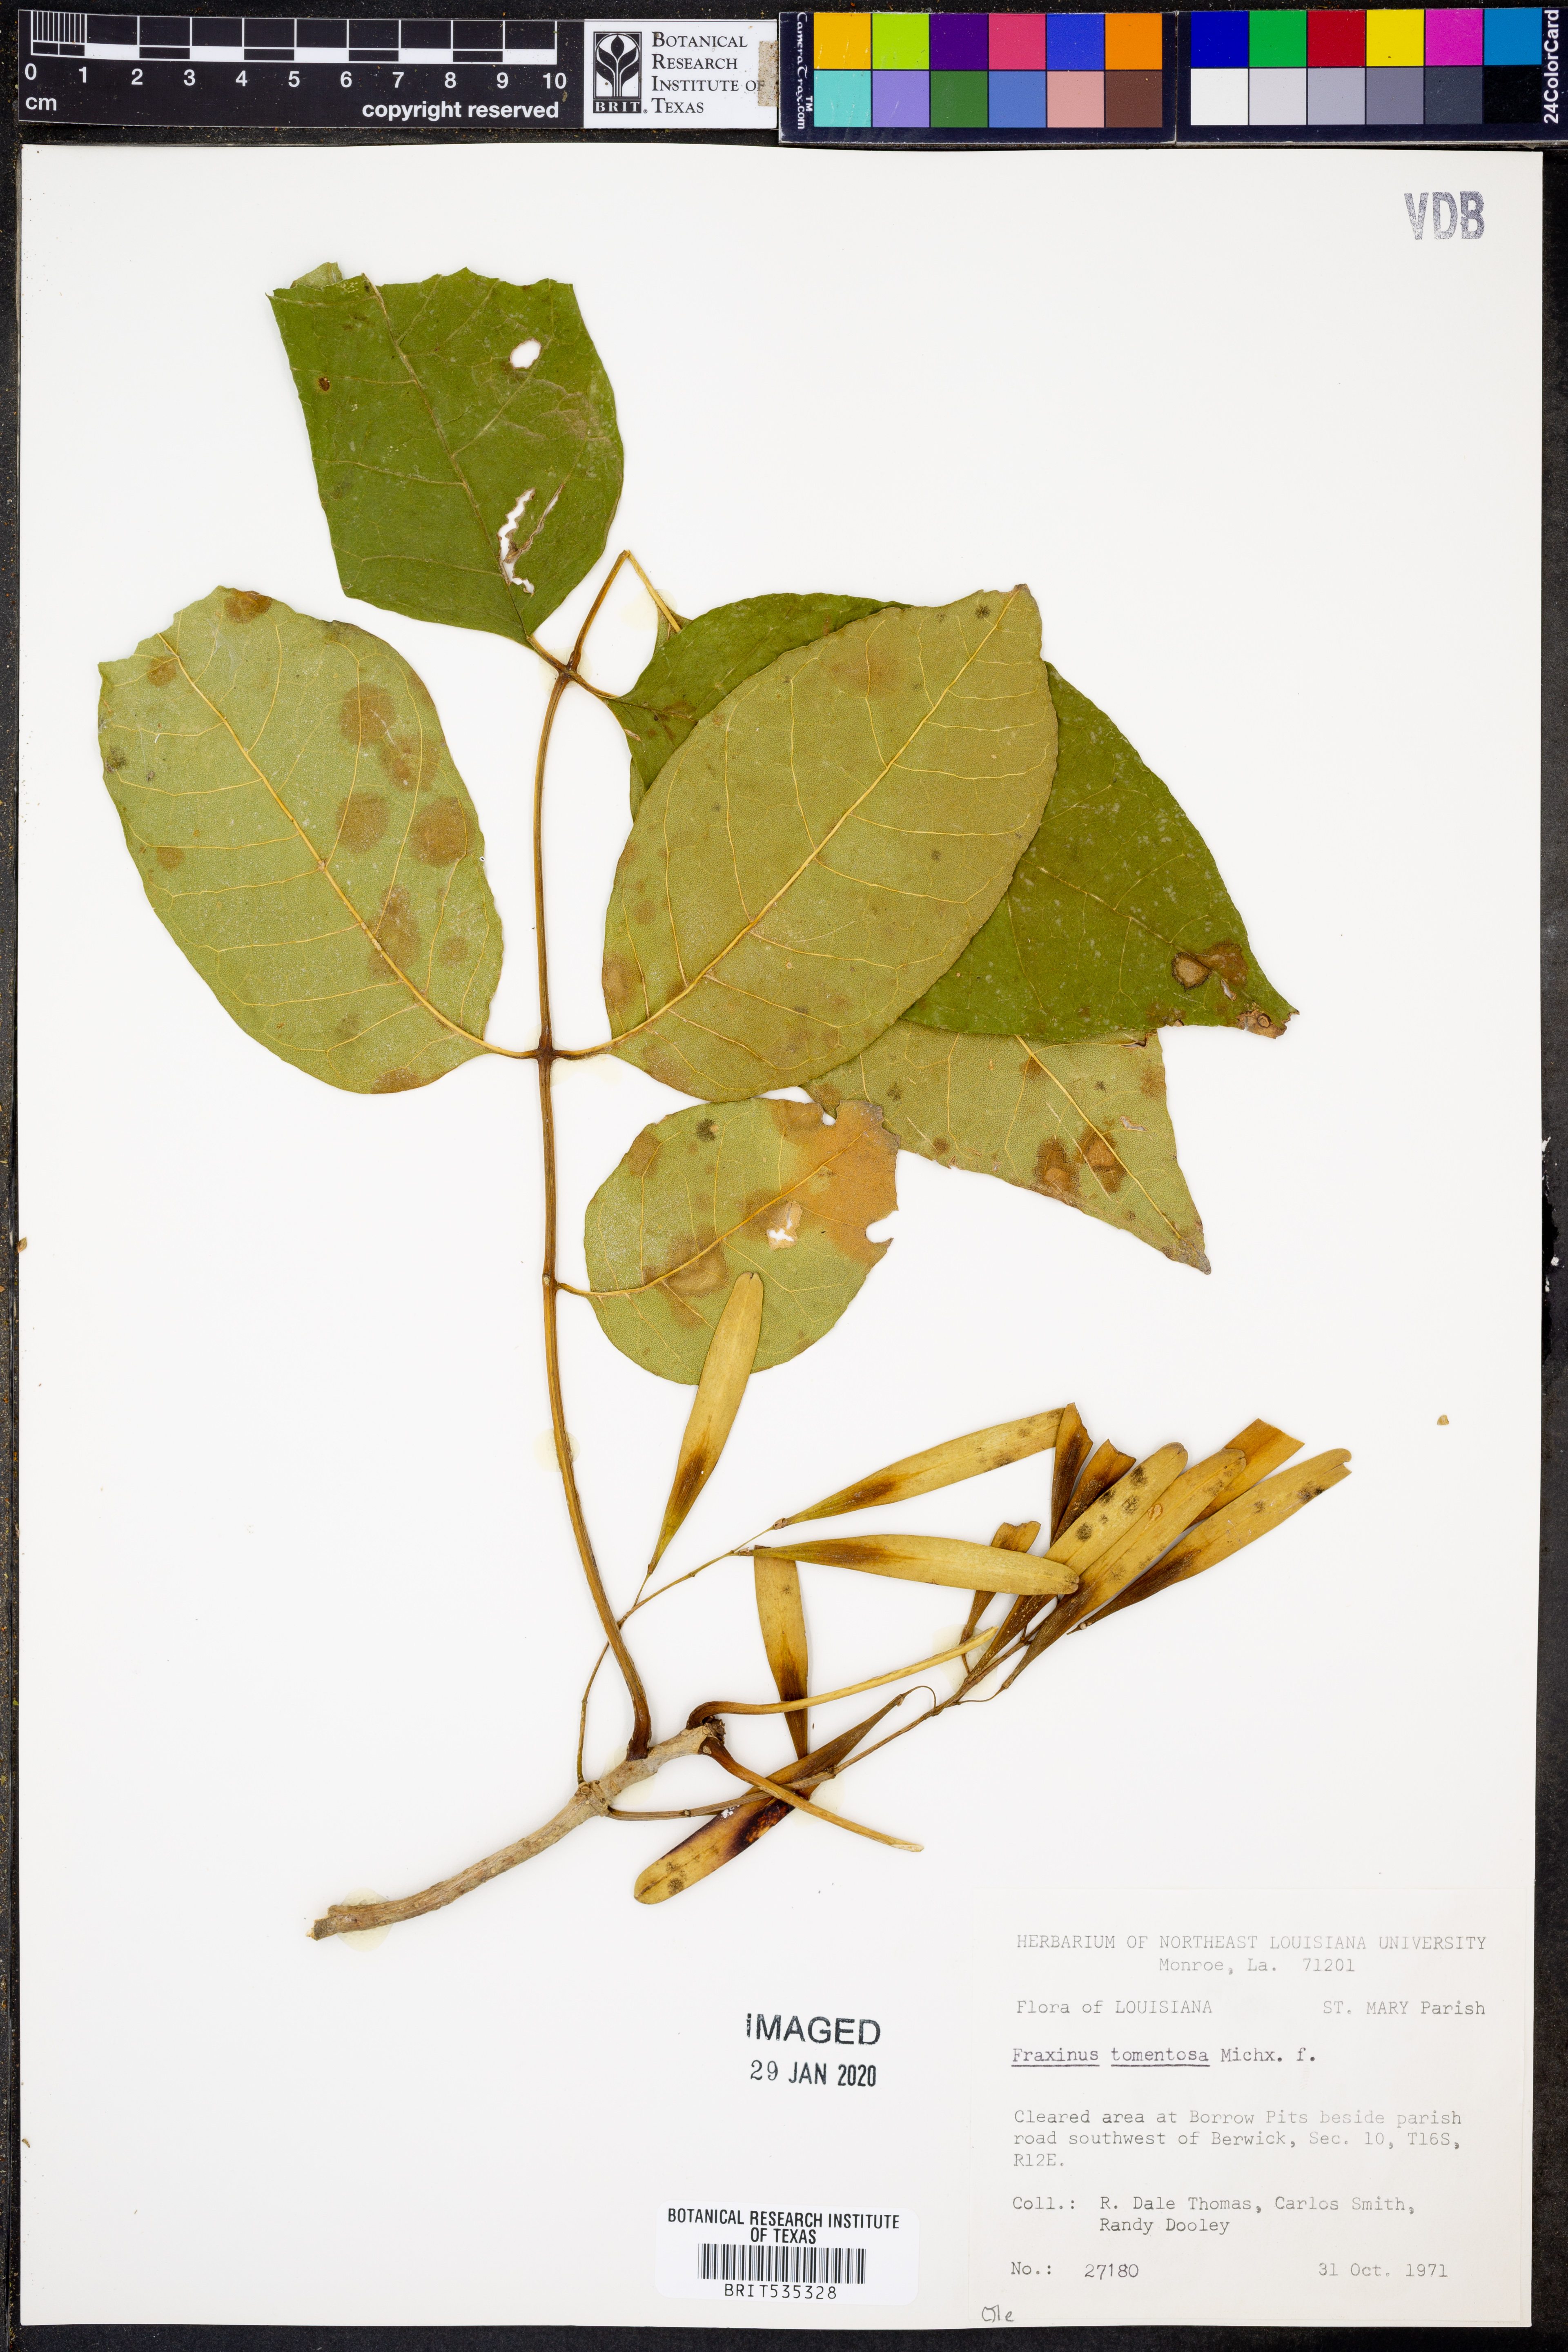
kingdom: Plantae
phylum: Tracheophyta
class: Magnoliopsida
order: Lamiales
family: Oleaceae
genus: Fraxinus
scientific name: Fraxinus profunda
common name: Pumpkin ash
